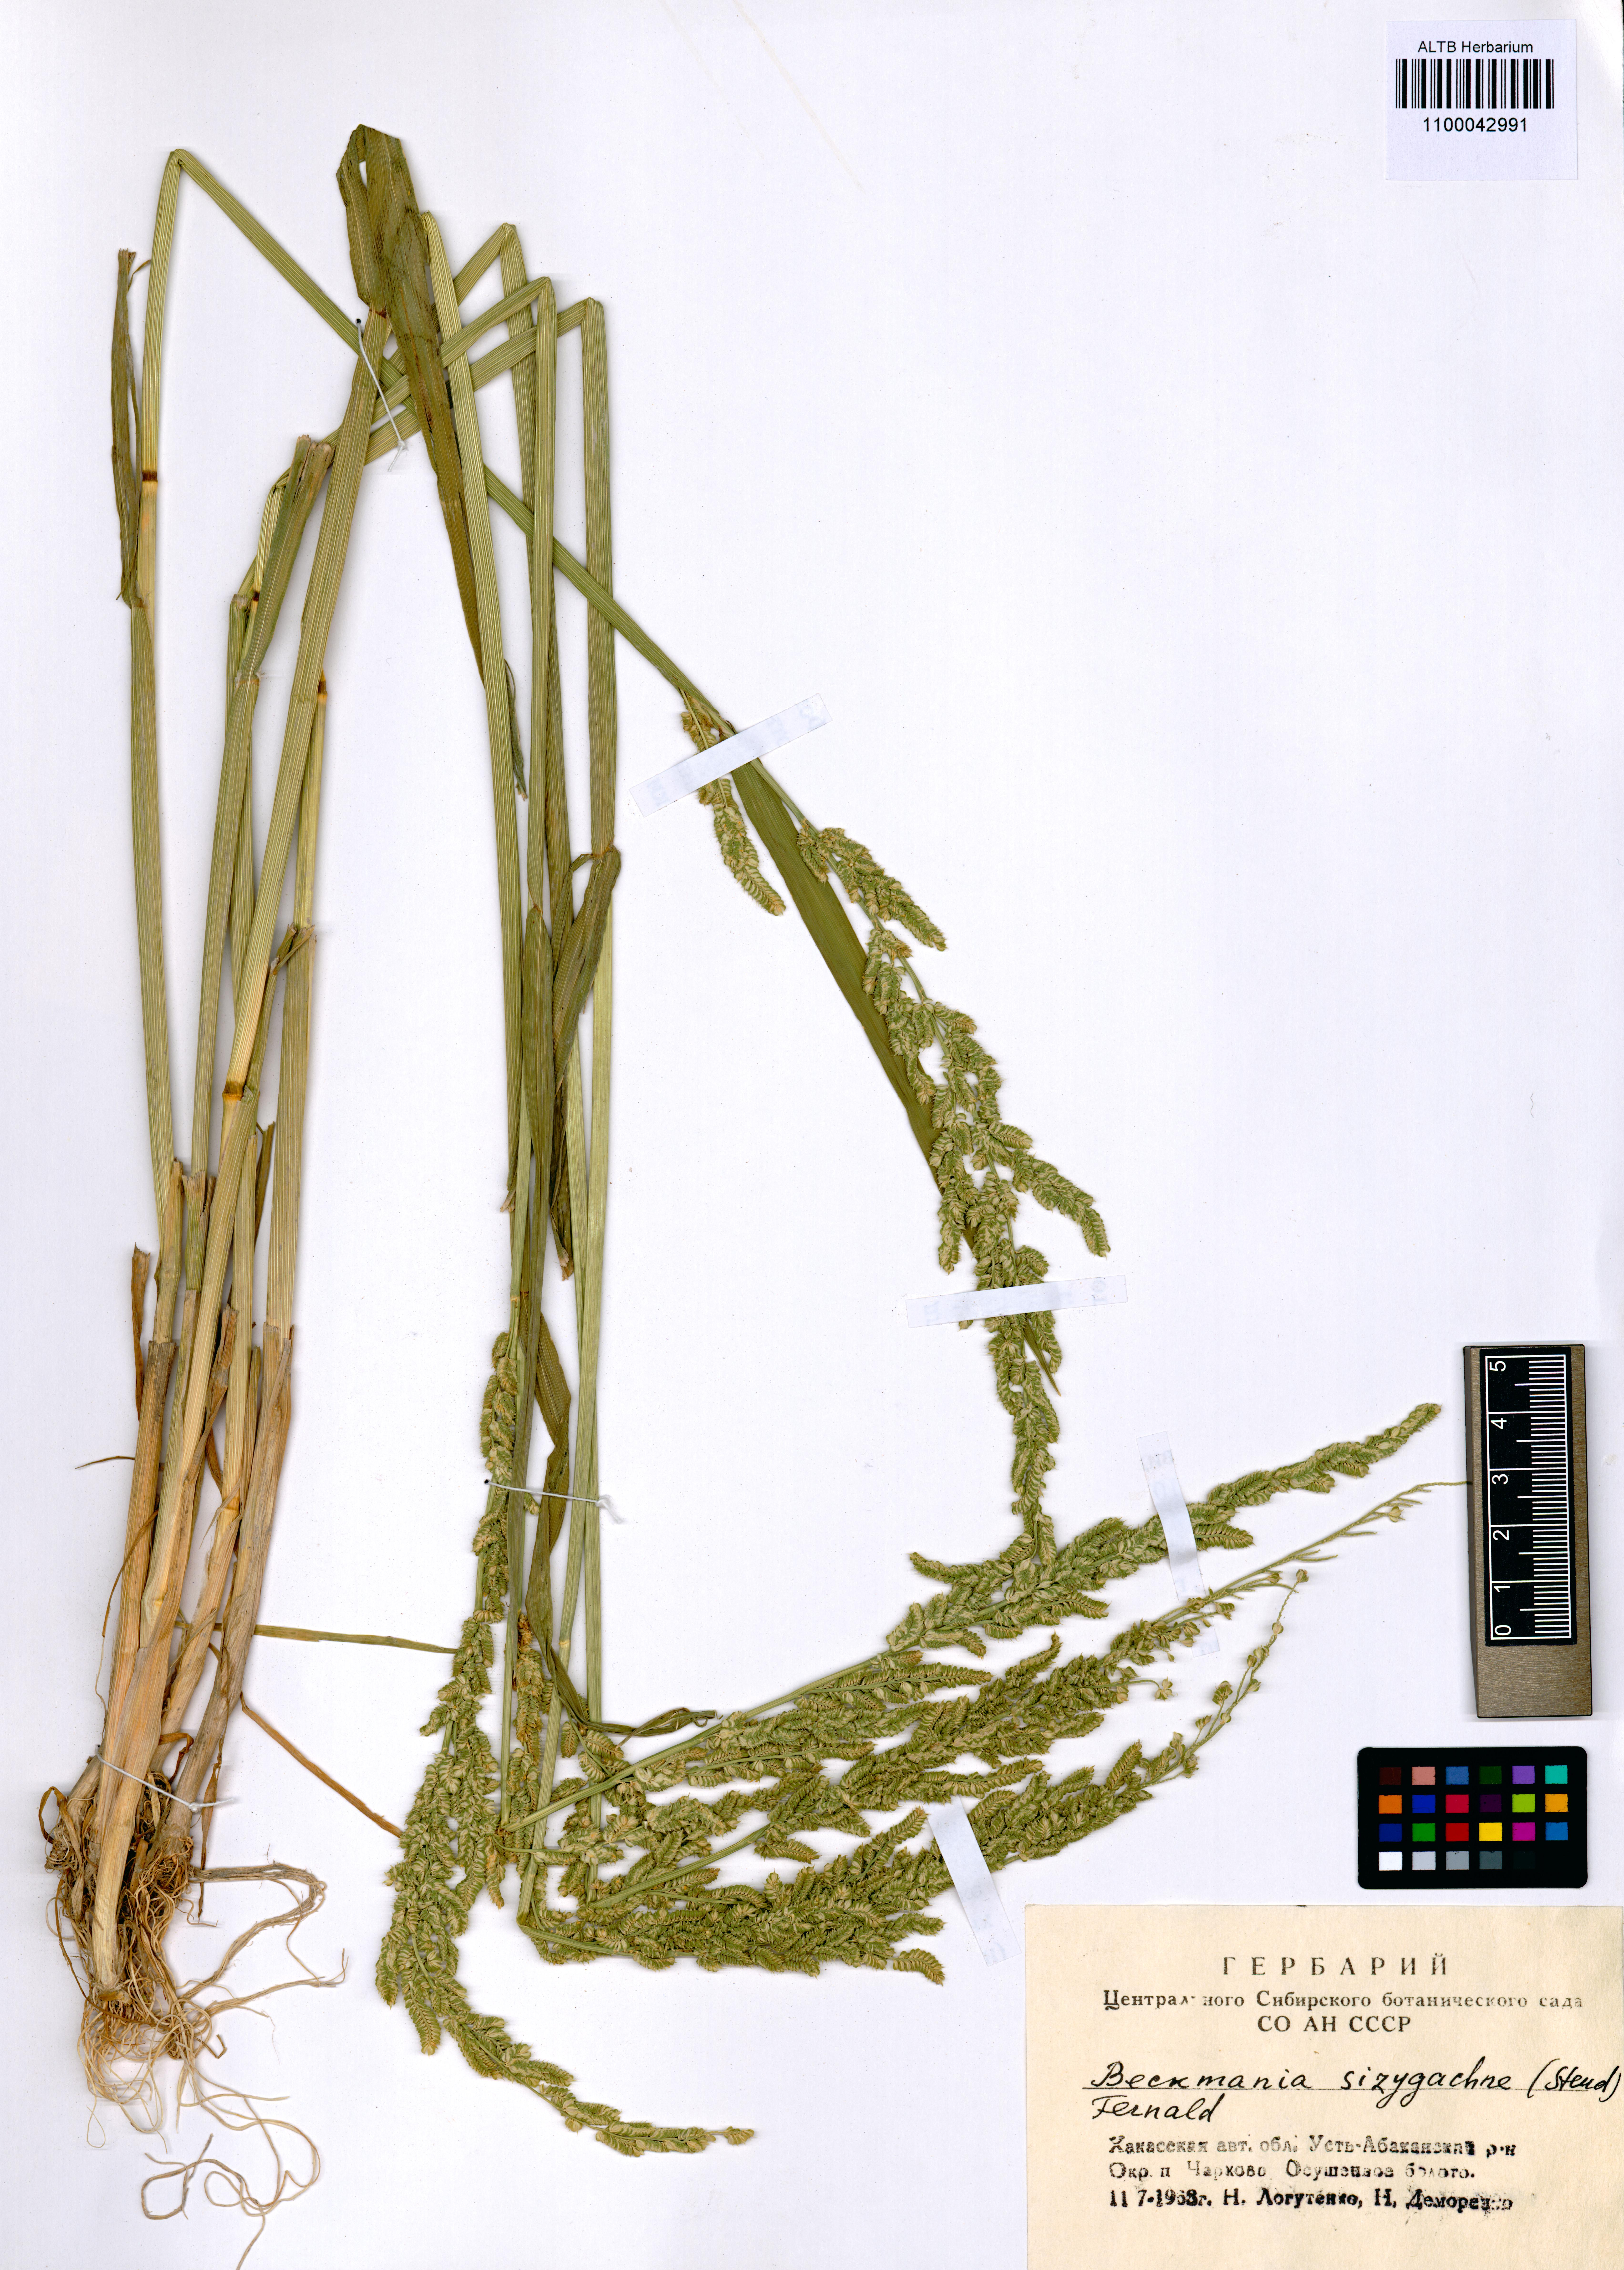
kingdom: Plantae
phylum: Tracheophyta
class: Liliopsida
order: Poales
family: Poaceae
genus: Beckmannia
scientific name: Beckmannia syzigachne
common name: American slough-grass
